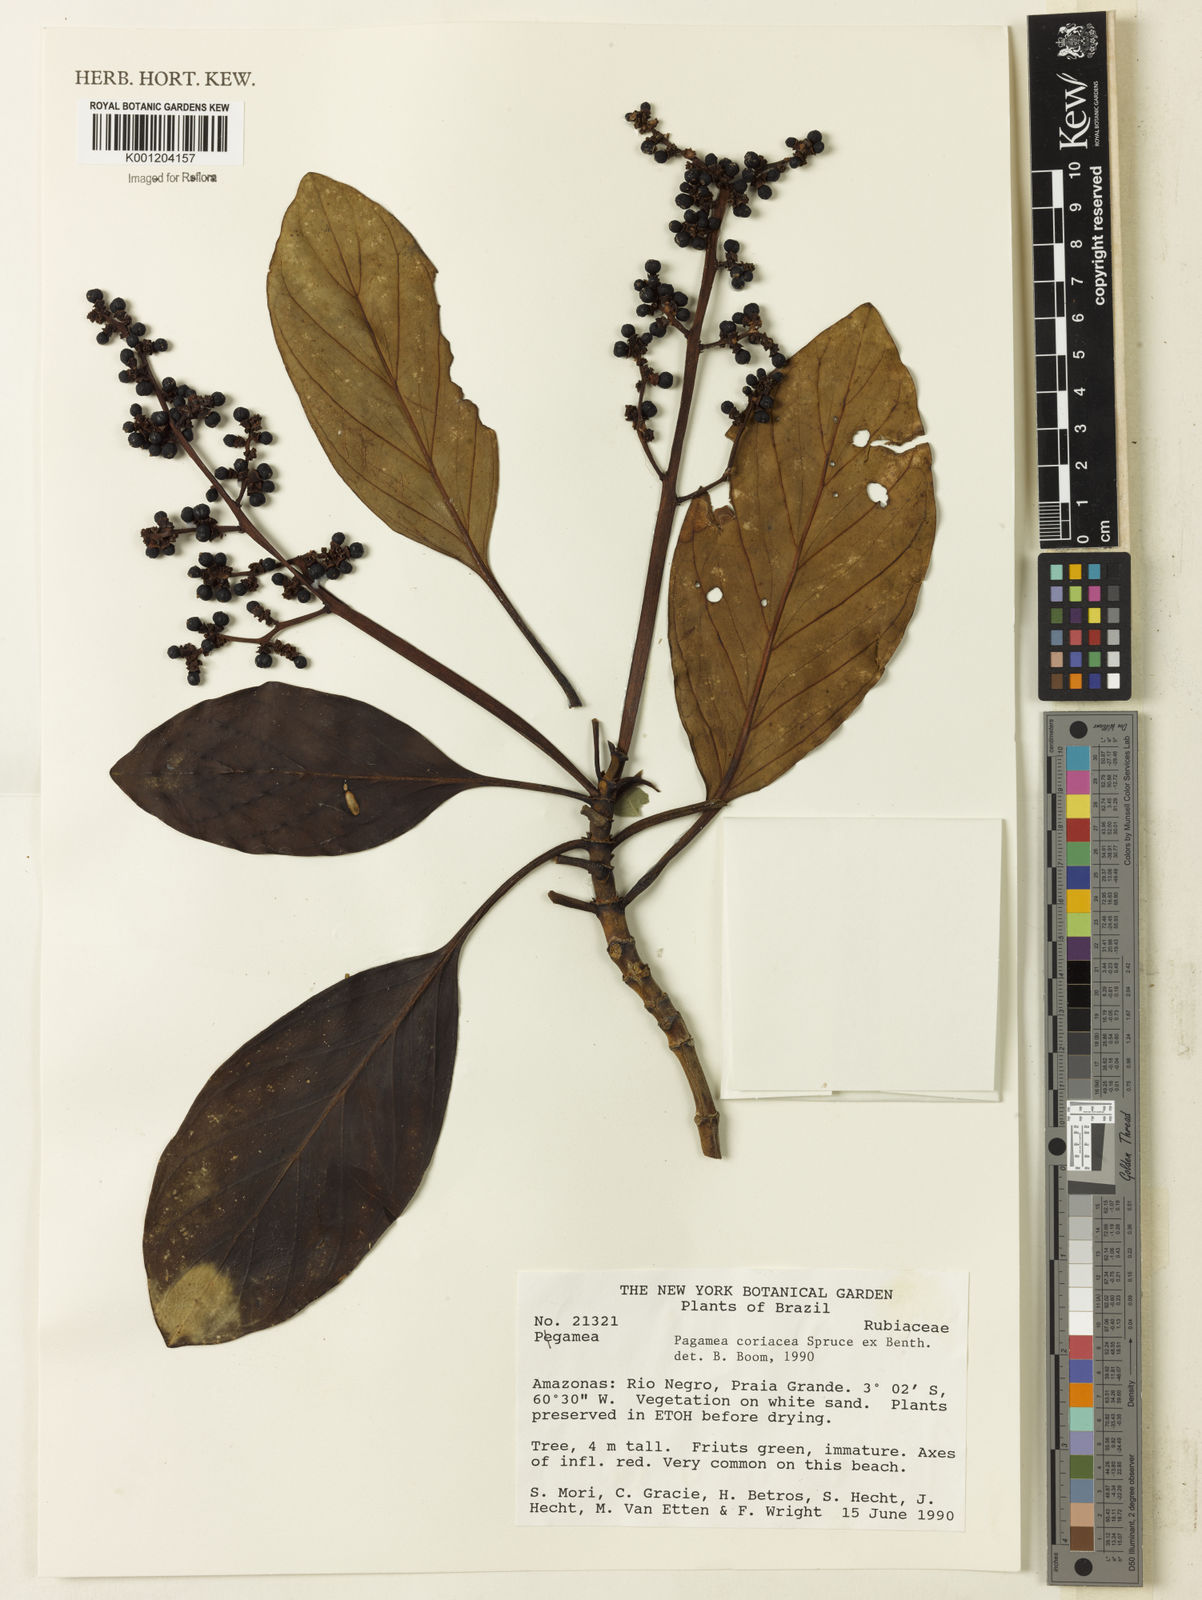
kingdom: Plantae
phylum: Tracheophyta
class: Magnoliopsida
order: Gentianales
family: Rubiaceae
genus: Pagamea
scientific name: Pagamea coriacea
